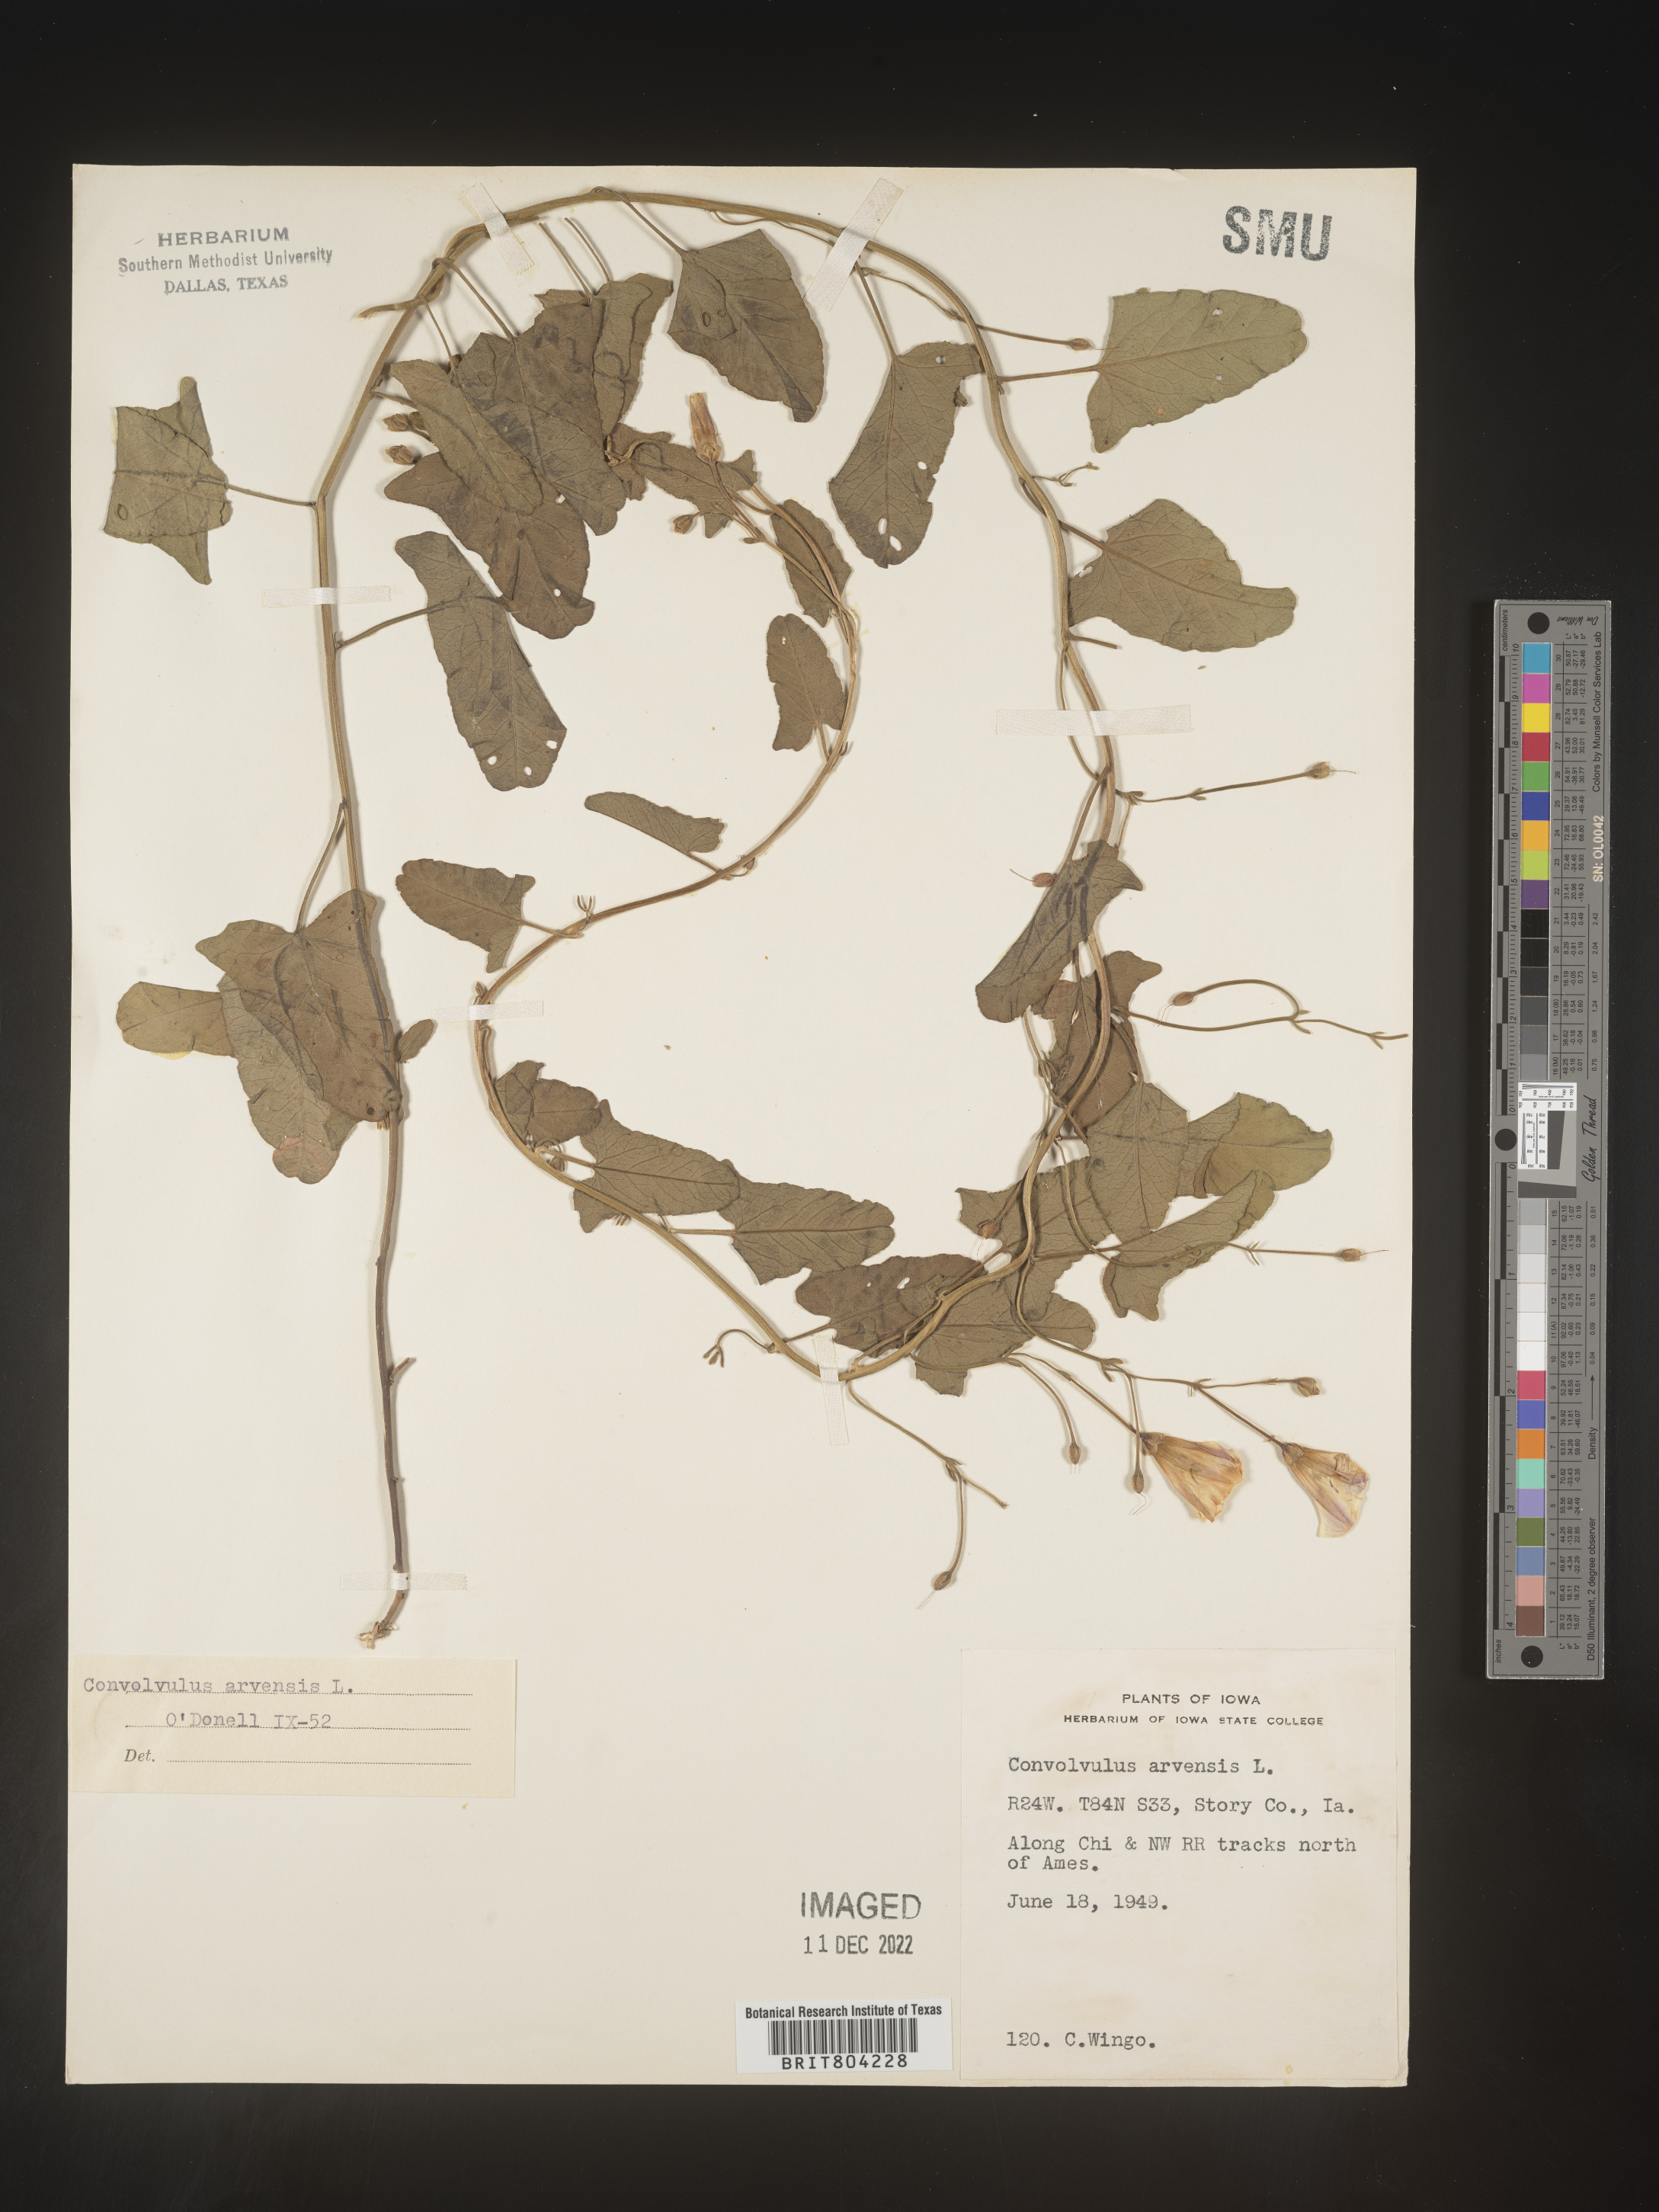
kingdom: Plantae
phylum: Tracheophyta
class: Magnoliopsida
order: Solanales
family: Convolvulaceae
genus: Convolvulus
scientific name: Convolvulus arvensis
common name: Field bindweed
